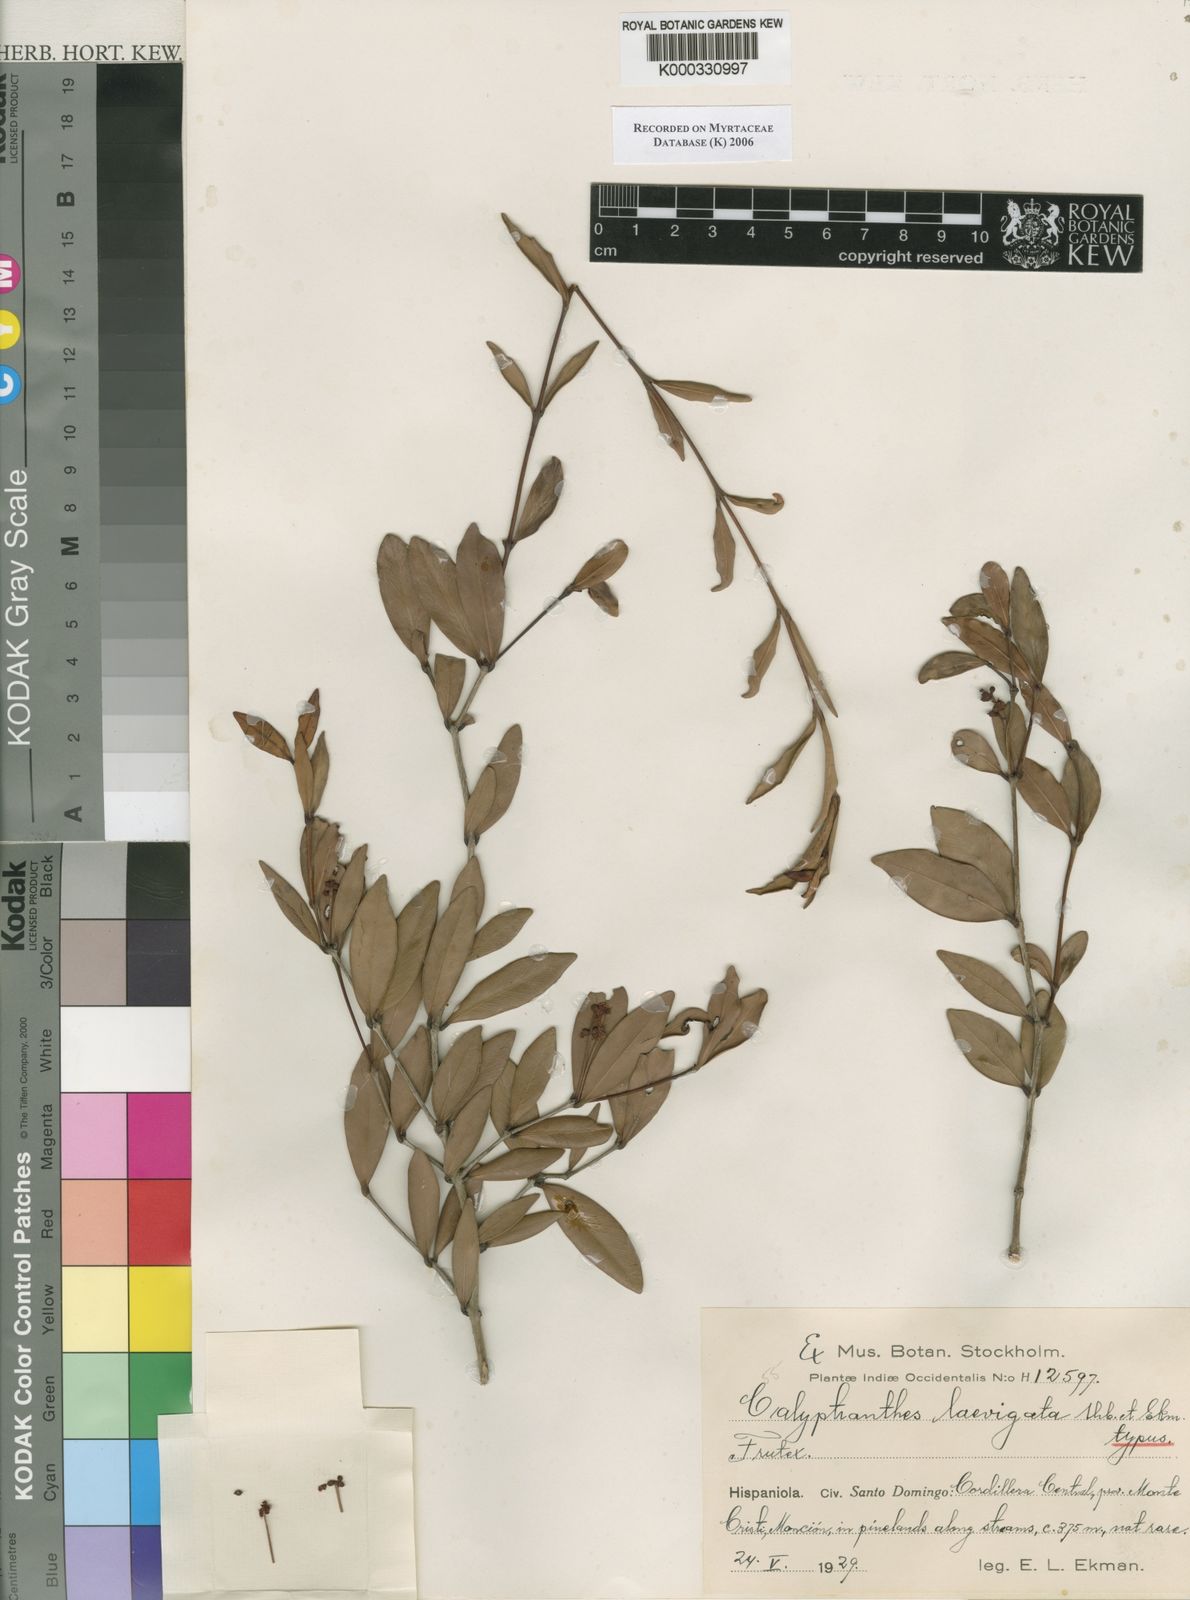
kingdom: Plantae
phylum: Tracheophyta
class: Magnoliopsida
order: Myrtales
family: Myrtaceae
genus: Myrcia
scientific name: Myrcia neolaevigata
